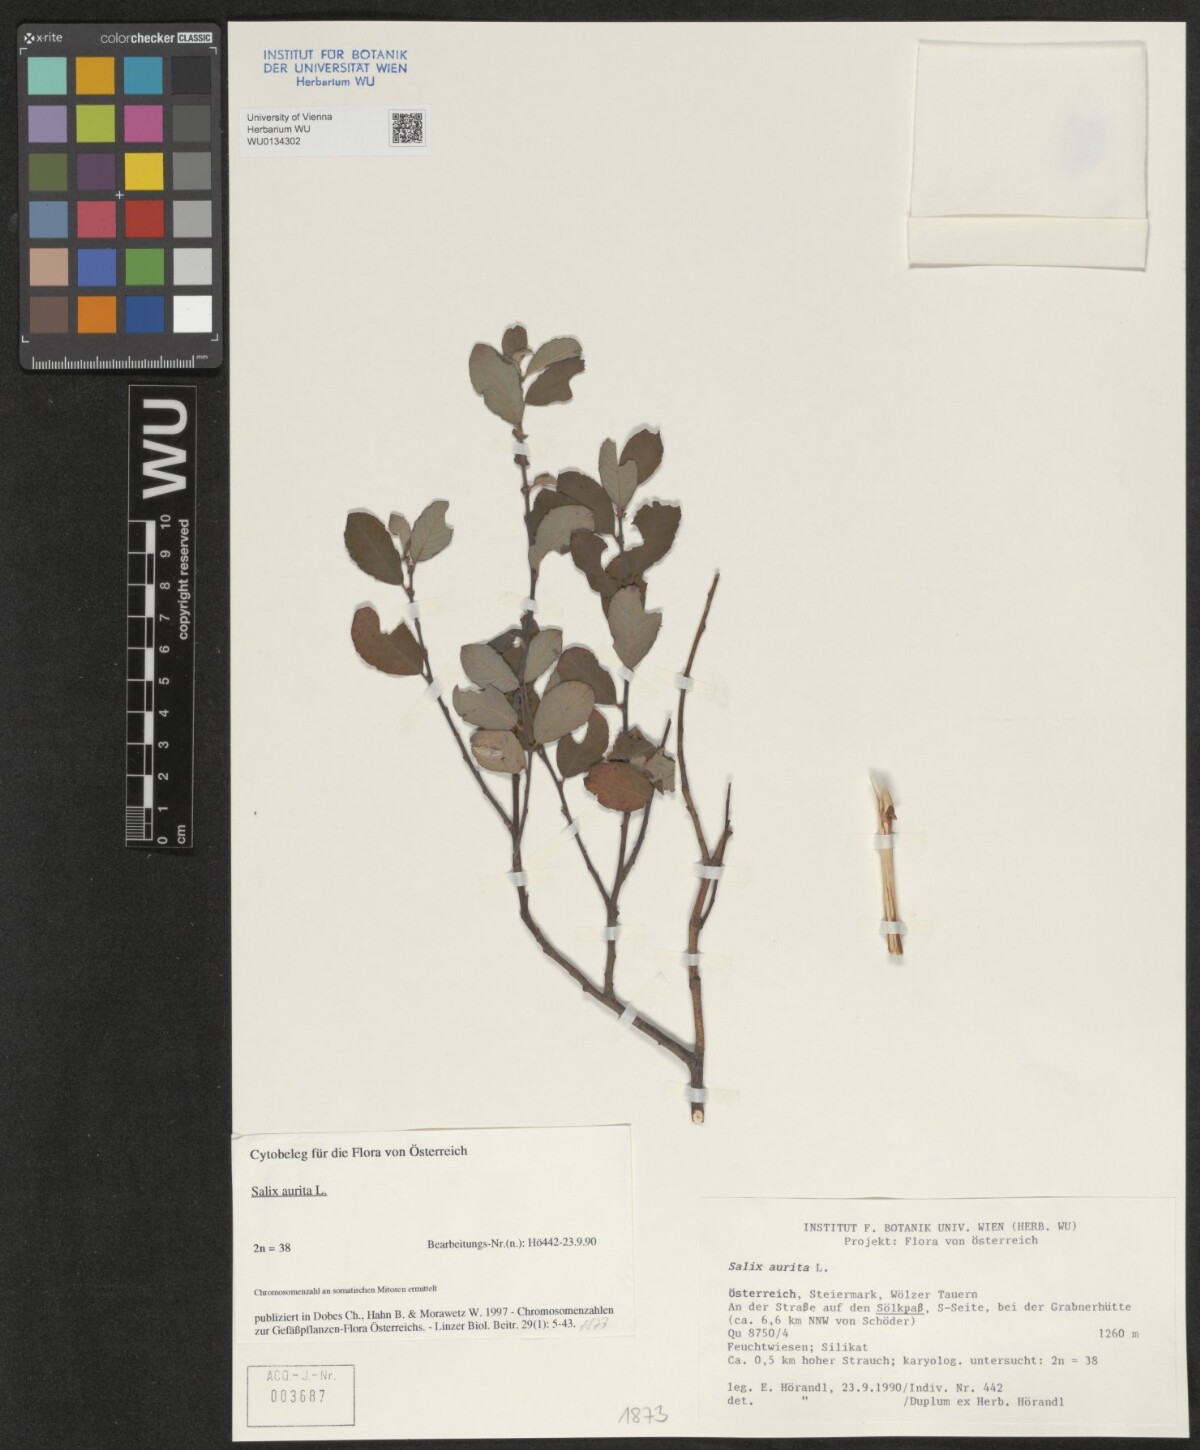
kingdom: Plantae
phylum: Tracheophyta
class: Magnoliopsida
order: Malpighiales
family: Salicaceae
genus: Salix
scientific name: Salix aurita
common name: Eared willow
